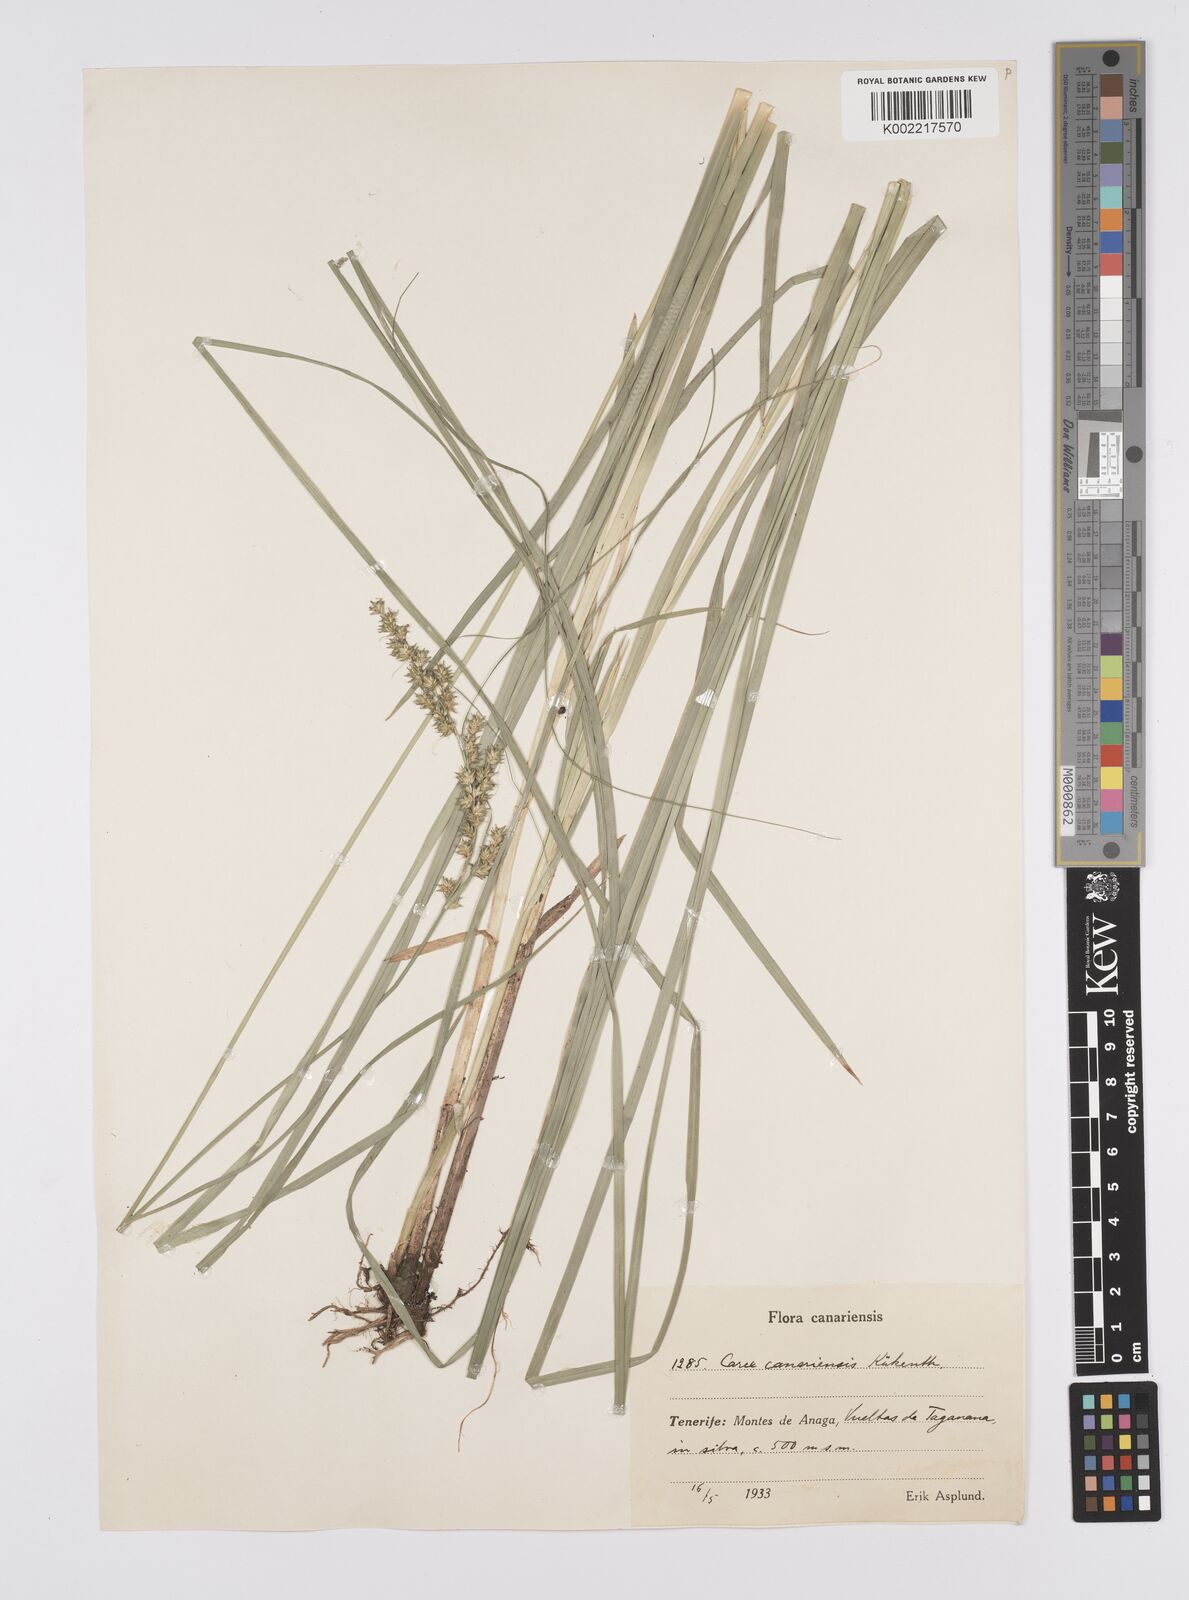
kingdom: Plantae
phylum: Tracheophyta
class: Liliopsida
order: Poales
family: Cyperaceae
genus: Carex
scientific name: Carex canariensis
